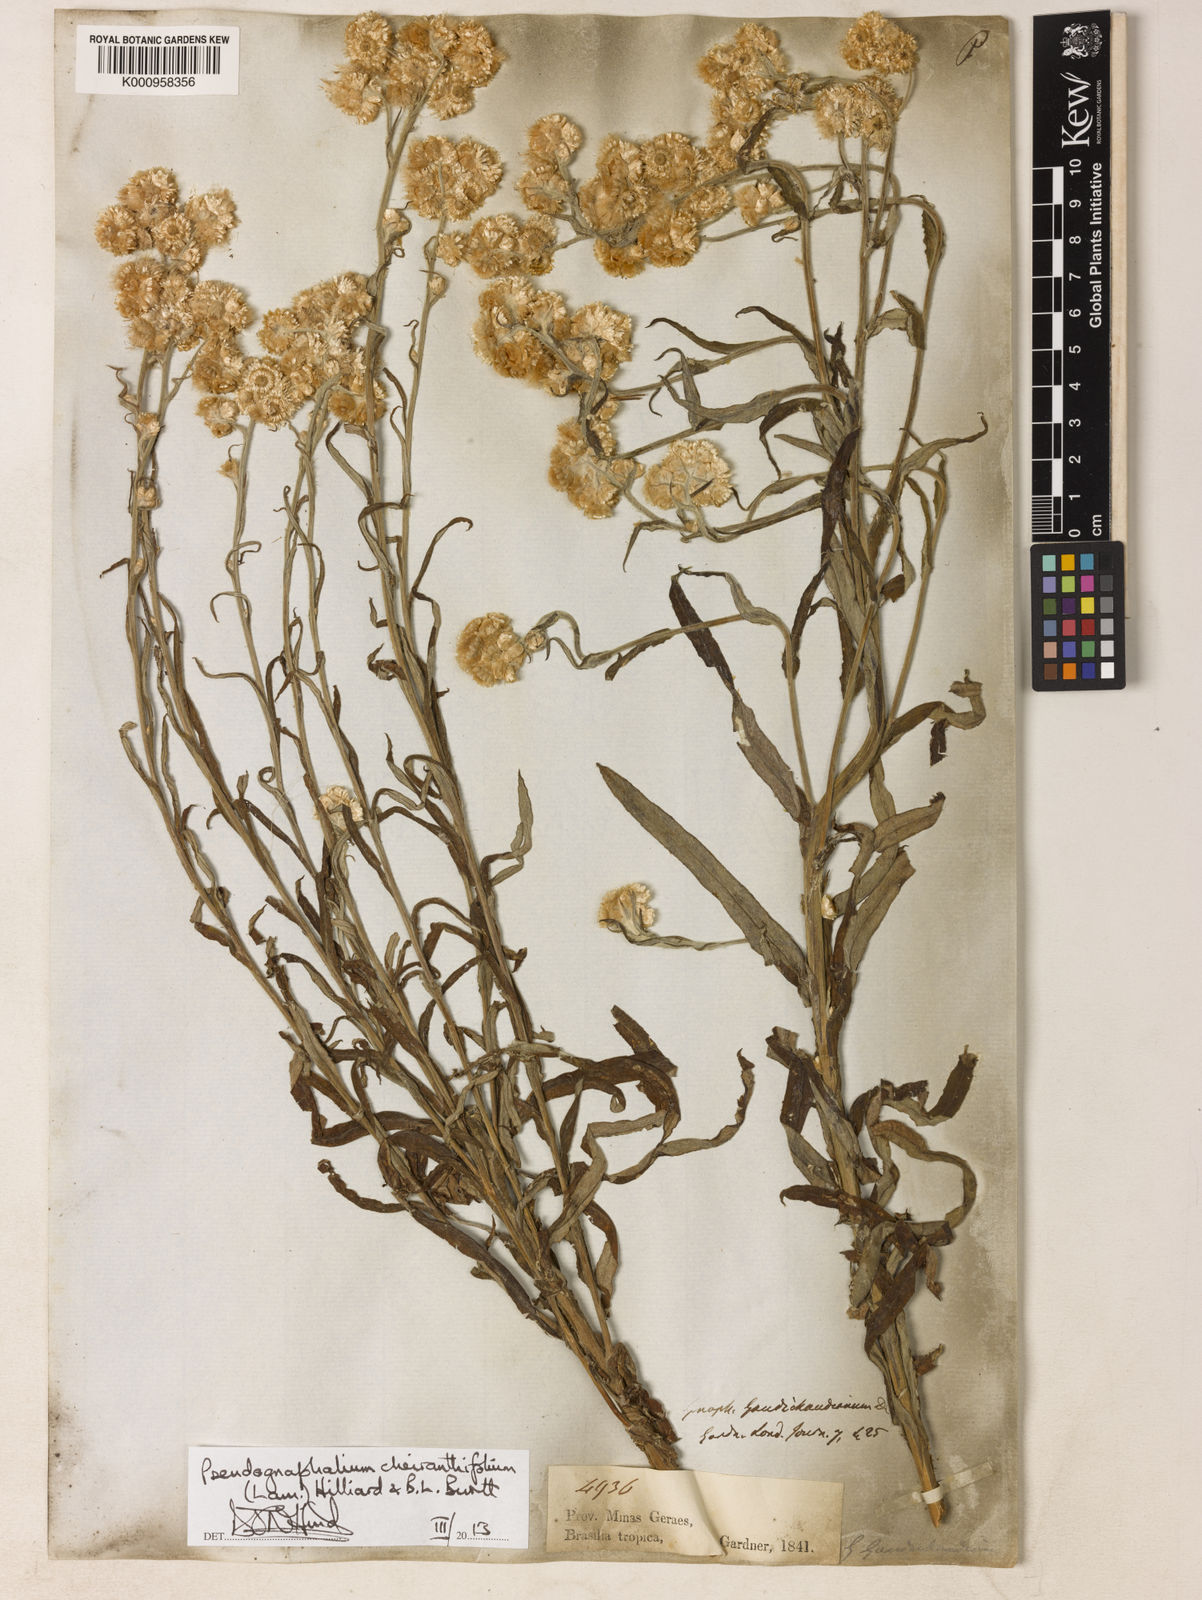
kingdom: Plantae
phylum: Tracheophyta
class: Magnoliopsida
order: Asterales
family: Asteraceae
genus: Pseudognaphalium
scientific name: Pseudognaphalium cheiranthifolium
